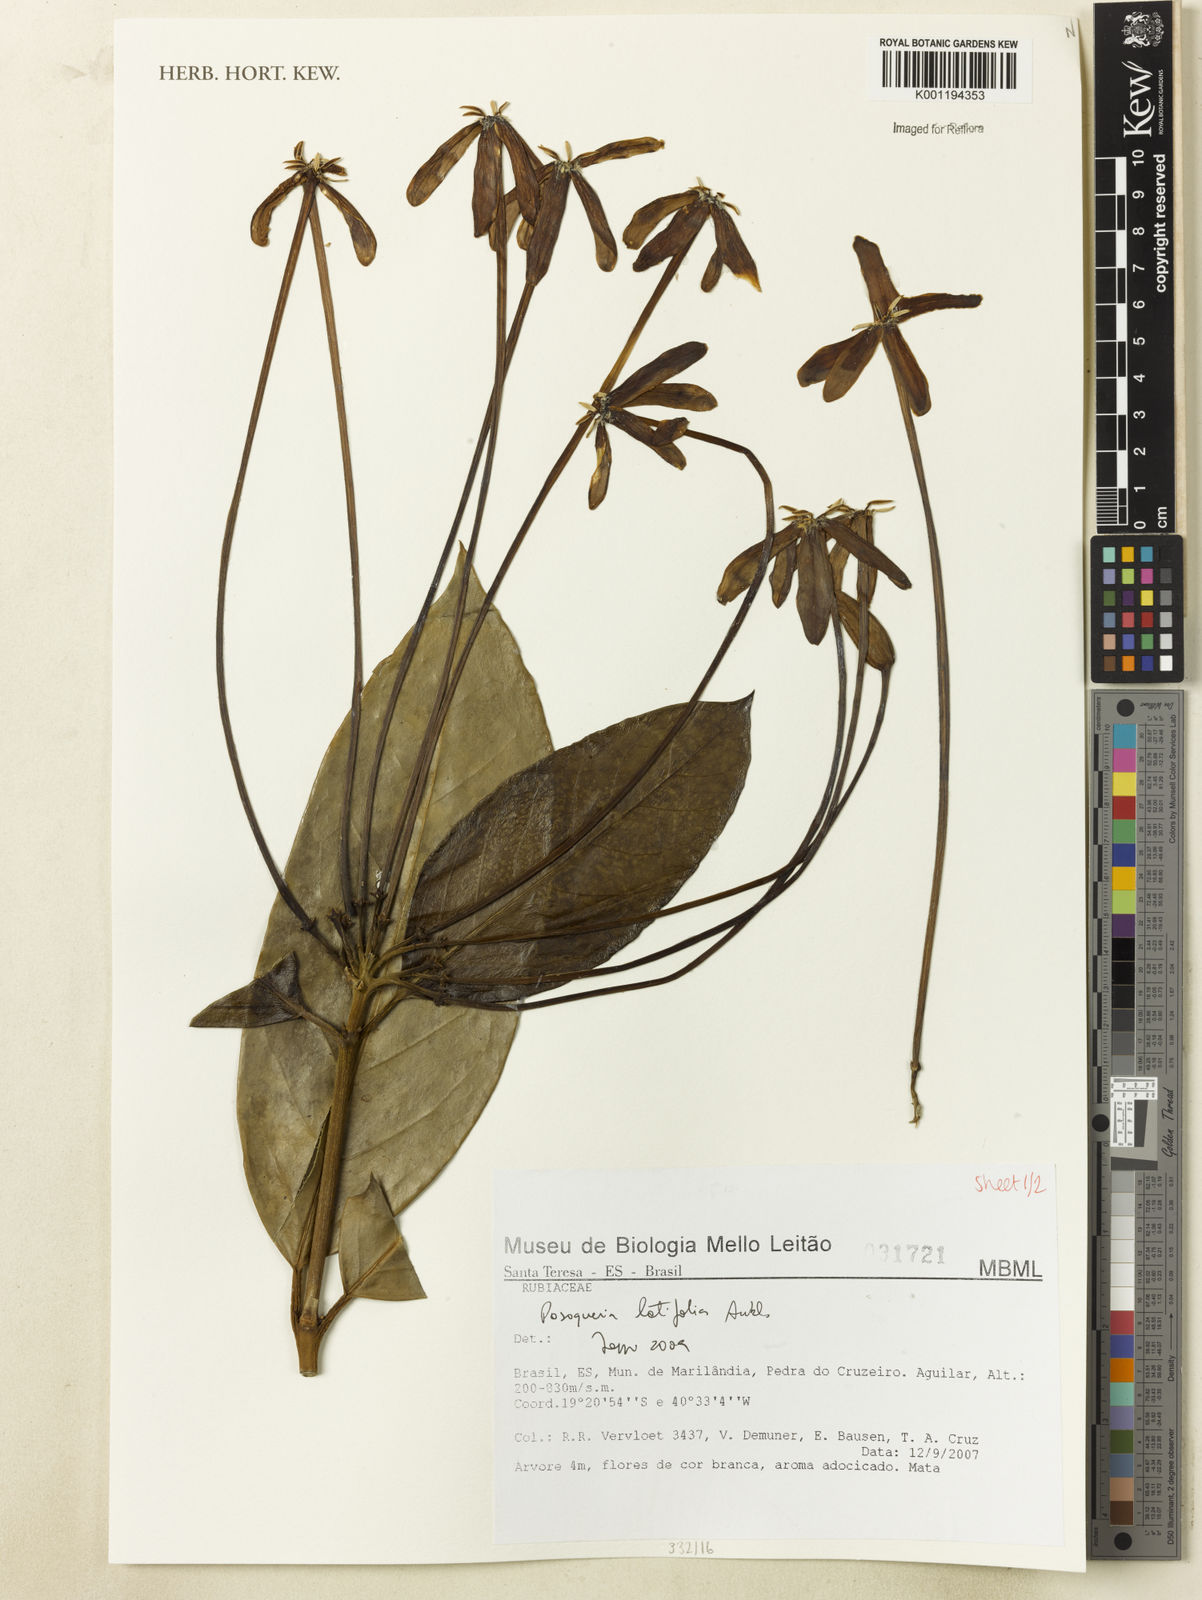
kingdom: Plantae
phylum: Tracheophyta
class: Magnoliopsida
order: Gentianales
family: Rubiaceae
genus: Posoqueria
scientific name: Posoqueria latifolia
